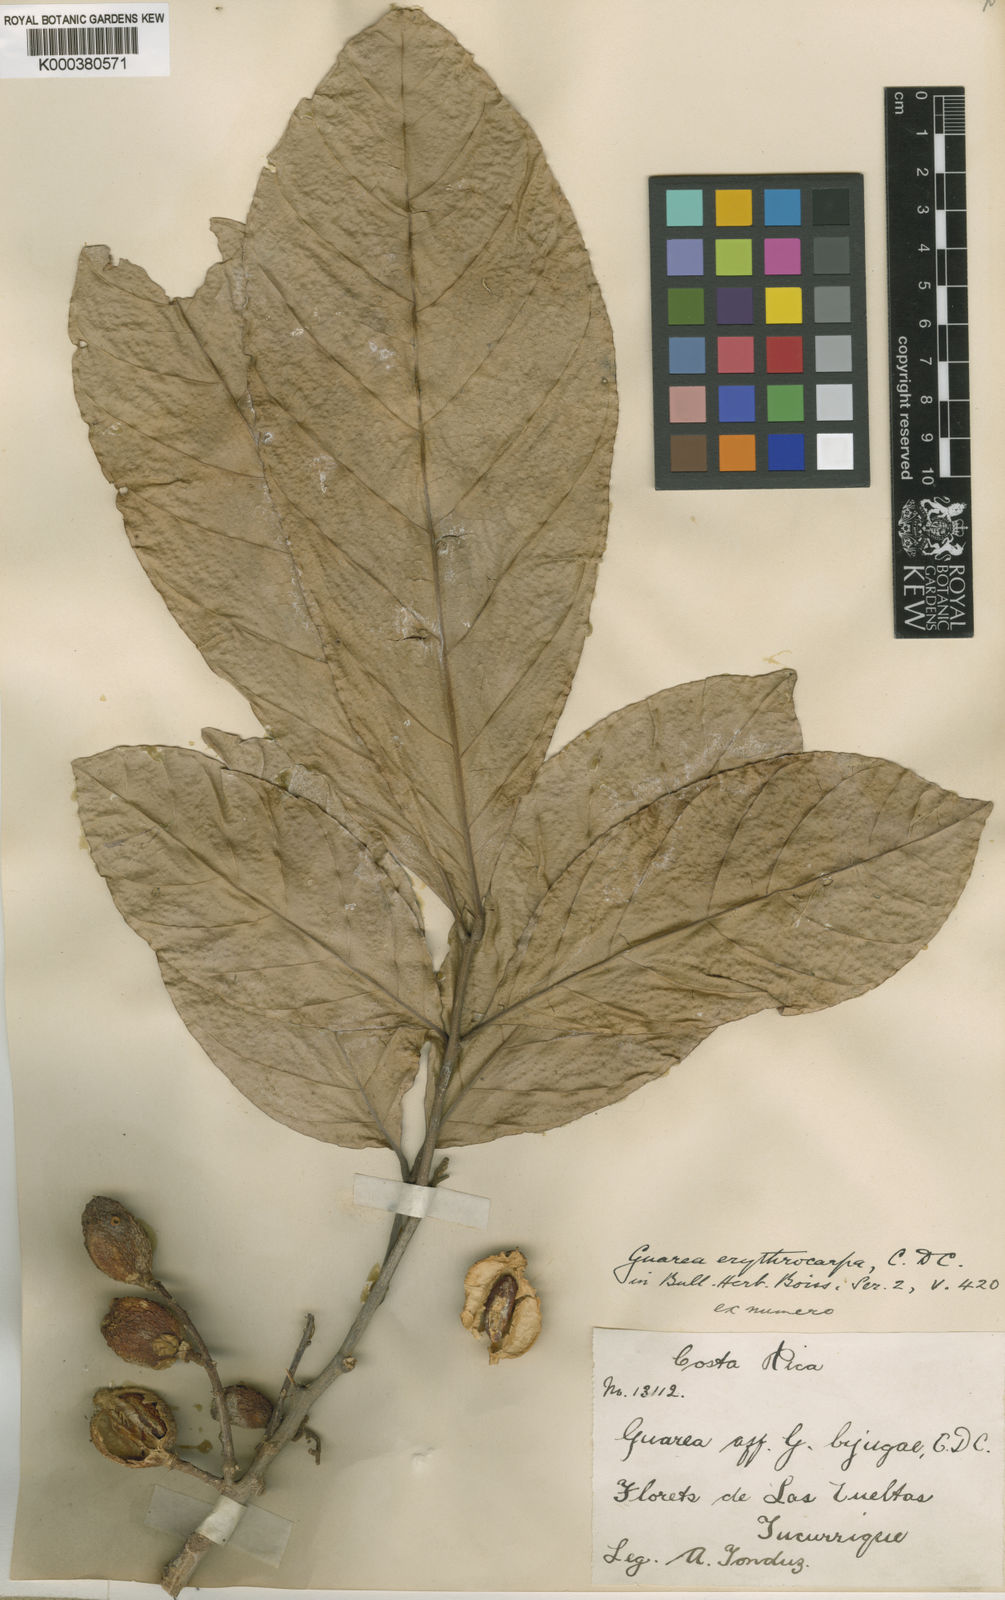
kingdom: Plantae
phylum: Tracheophyta
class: Magnoliopsida
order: Sapindales
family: Meliaceae
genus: Guarea
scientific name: Guarea glabra
